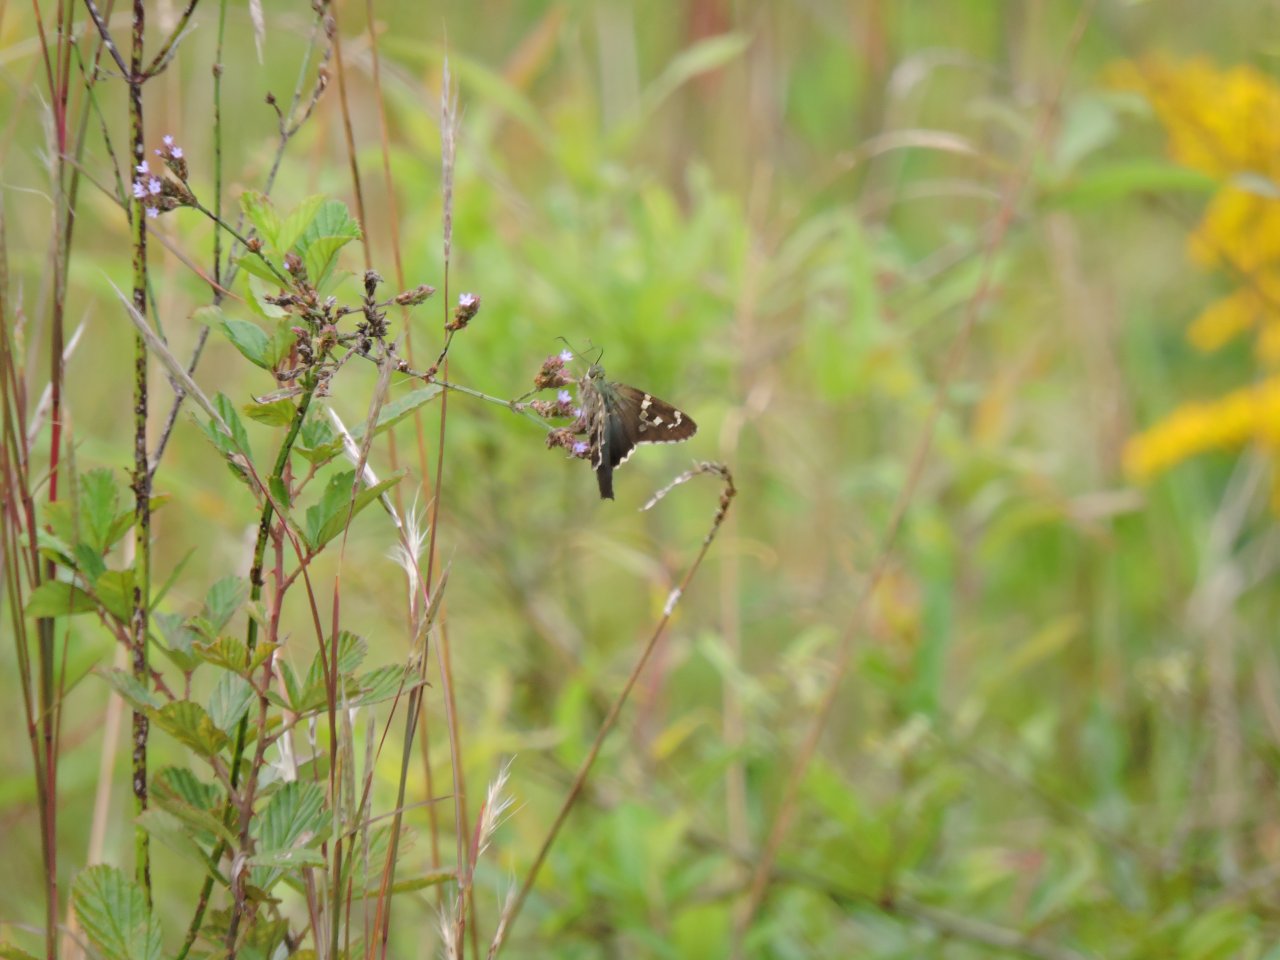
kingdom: Animalia
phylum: Arthropoda
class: Insecta
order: Lepidoptera
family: Hesperiidae
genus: Urbanus
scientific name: Urbanus proteus
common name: Long-tailed Skipper
